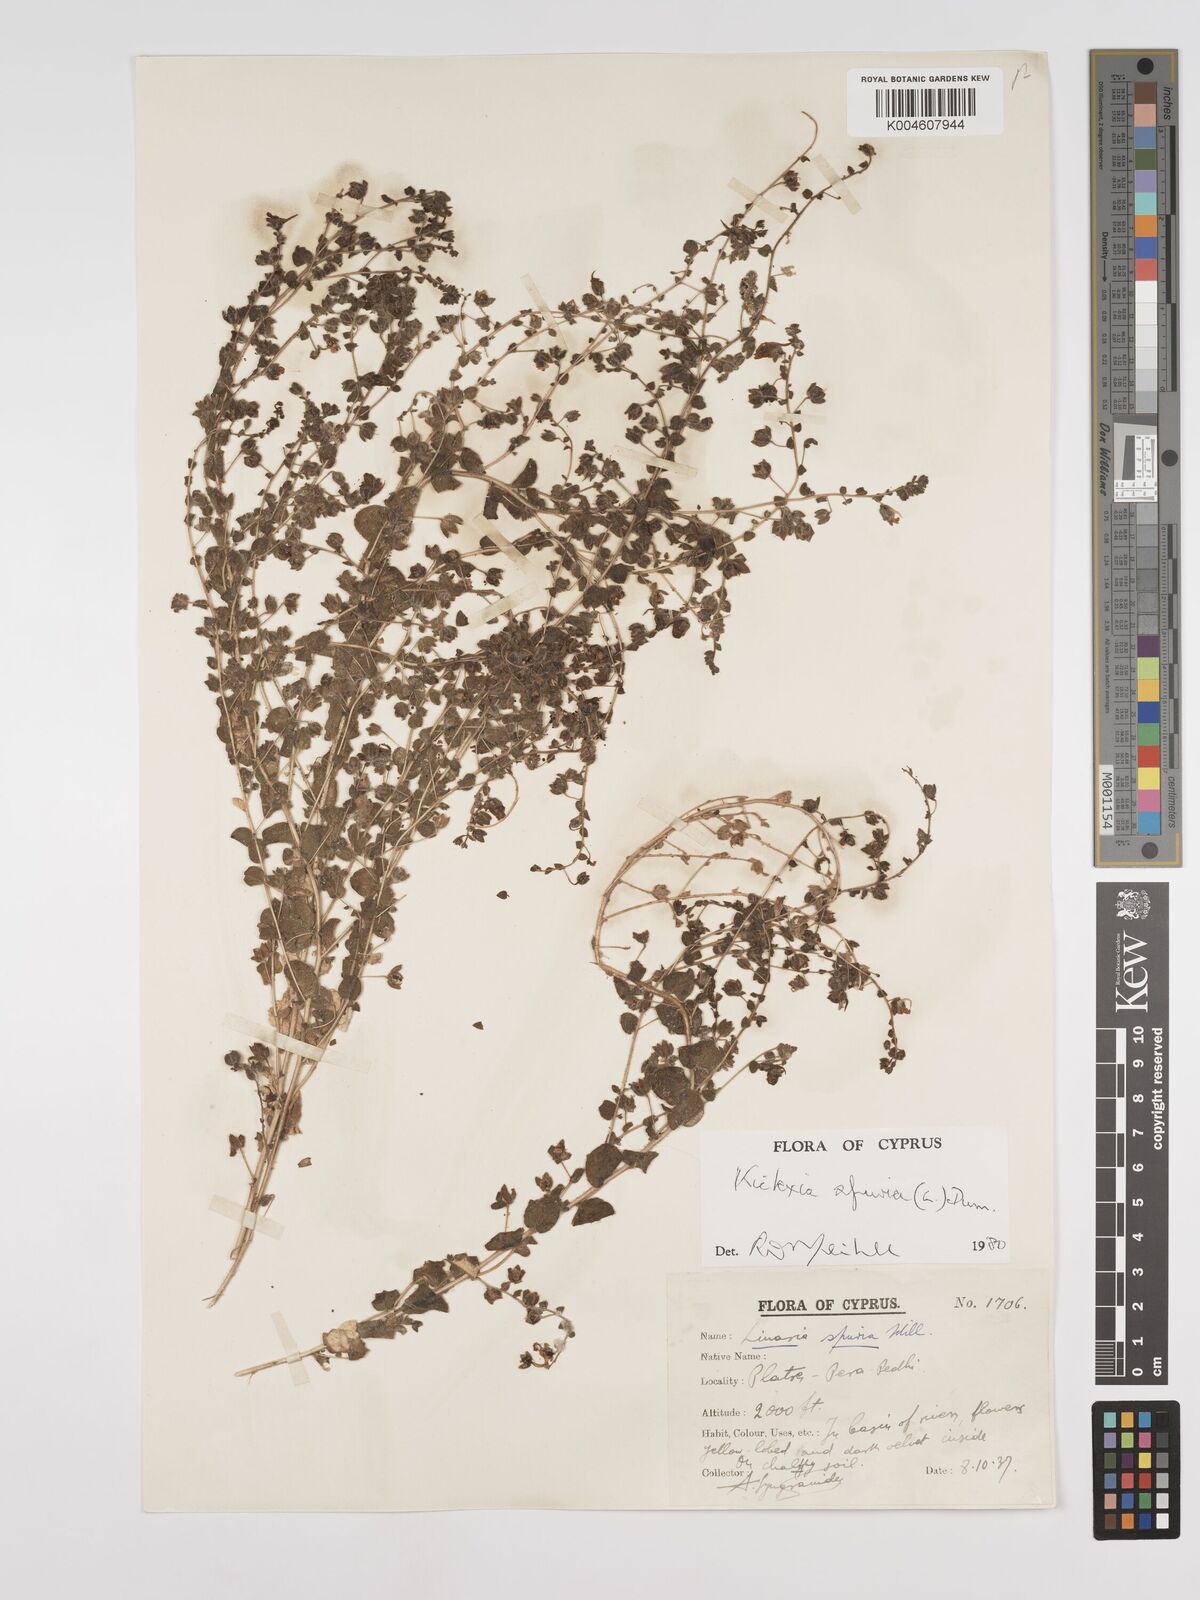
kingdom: Plantae
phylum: Tracheophyta
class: Magnoliopsida
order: Lamiales
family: Plantaginaceae
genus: Kickxia
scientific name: Kickxia spuria
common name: Round-leaved fluellen
